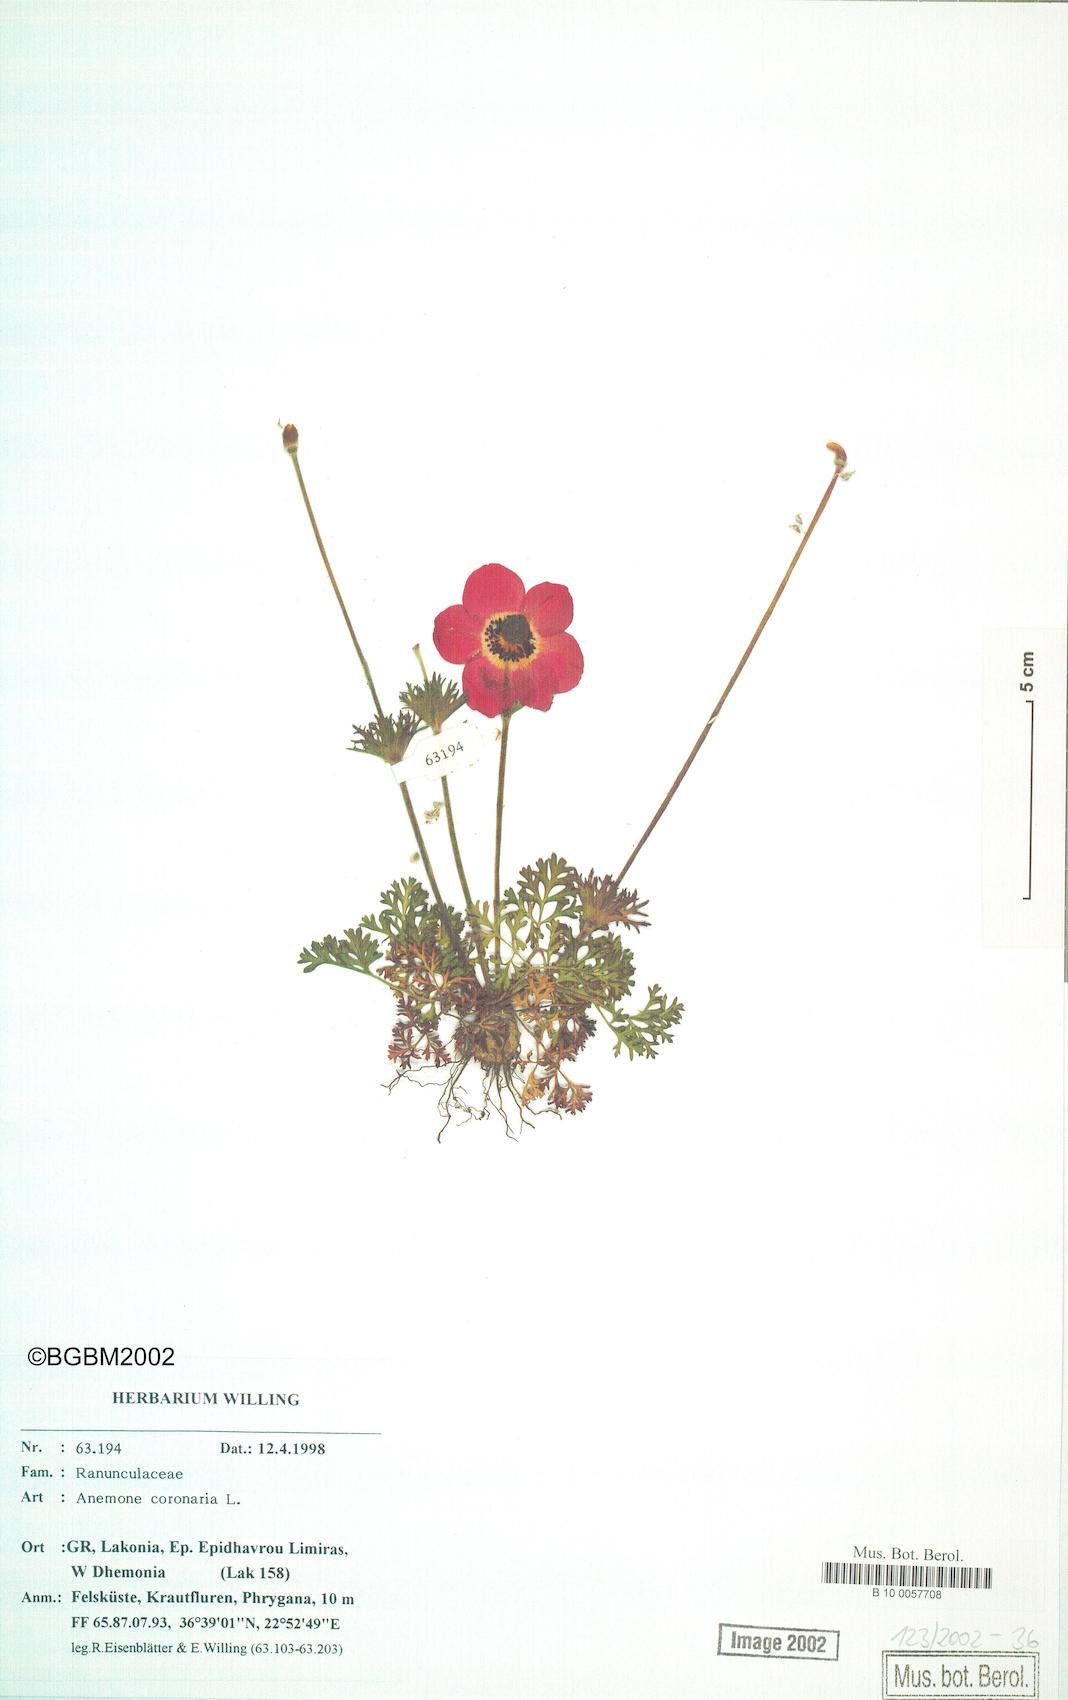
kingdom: Plantae
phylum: Tracheophyta
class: Magnoliopsida
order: Ranunculales
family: Ranunculaceae
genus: Anemone
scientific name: Anemone coronaria
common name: Poppy anemone
